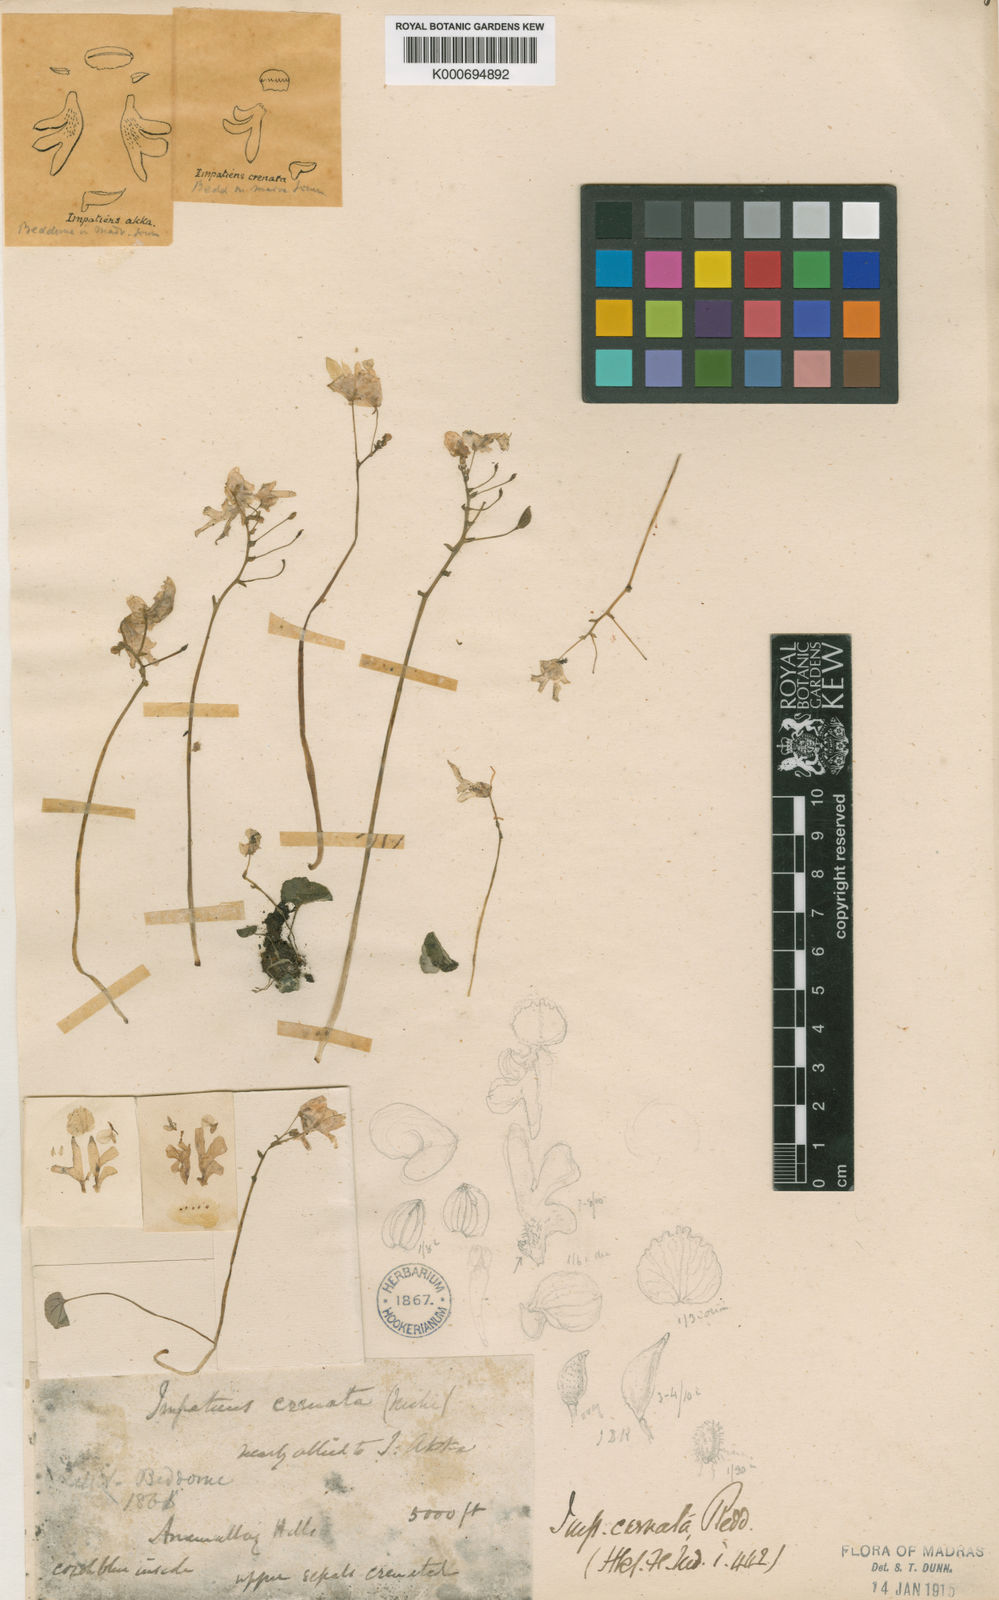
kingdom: Plantae
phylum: Tracheophyta
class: Magnoliopsida
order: Ericales
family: Balsaminaceae
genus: Impatiens
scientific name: Impatiens crenata
